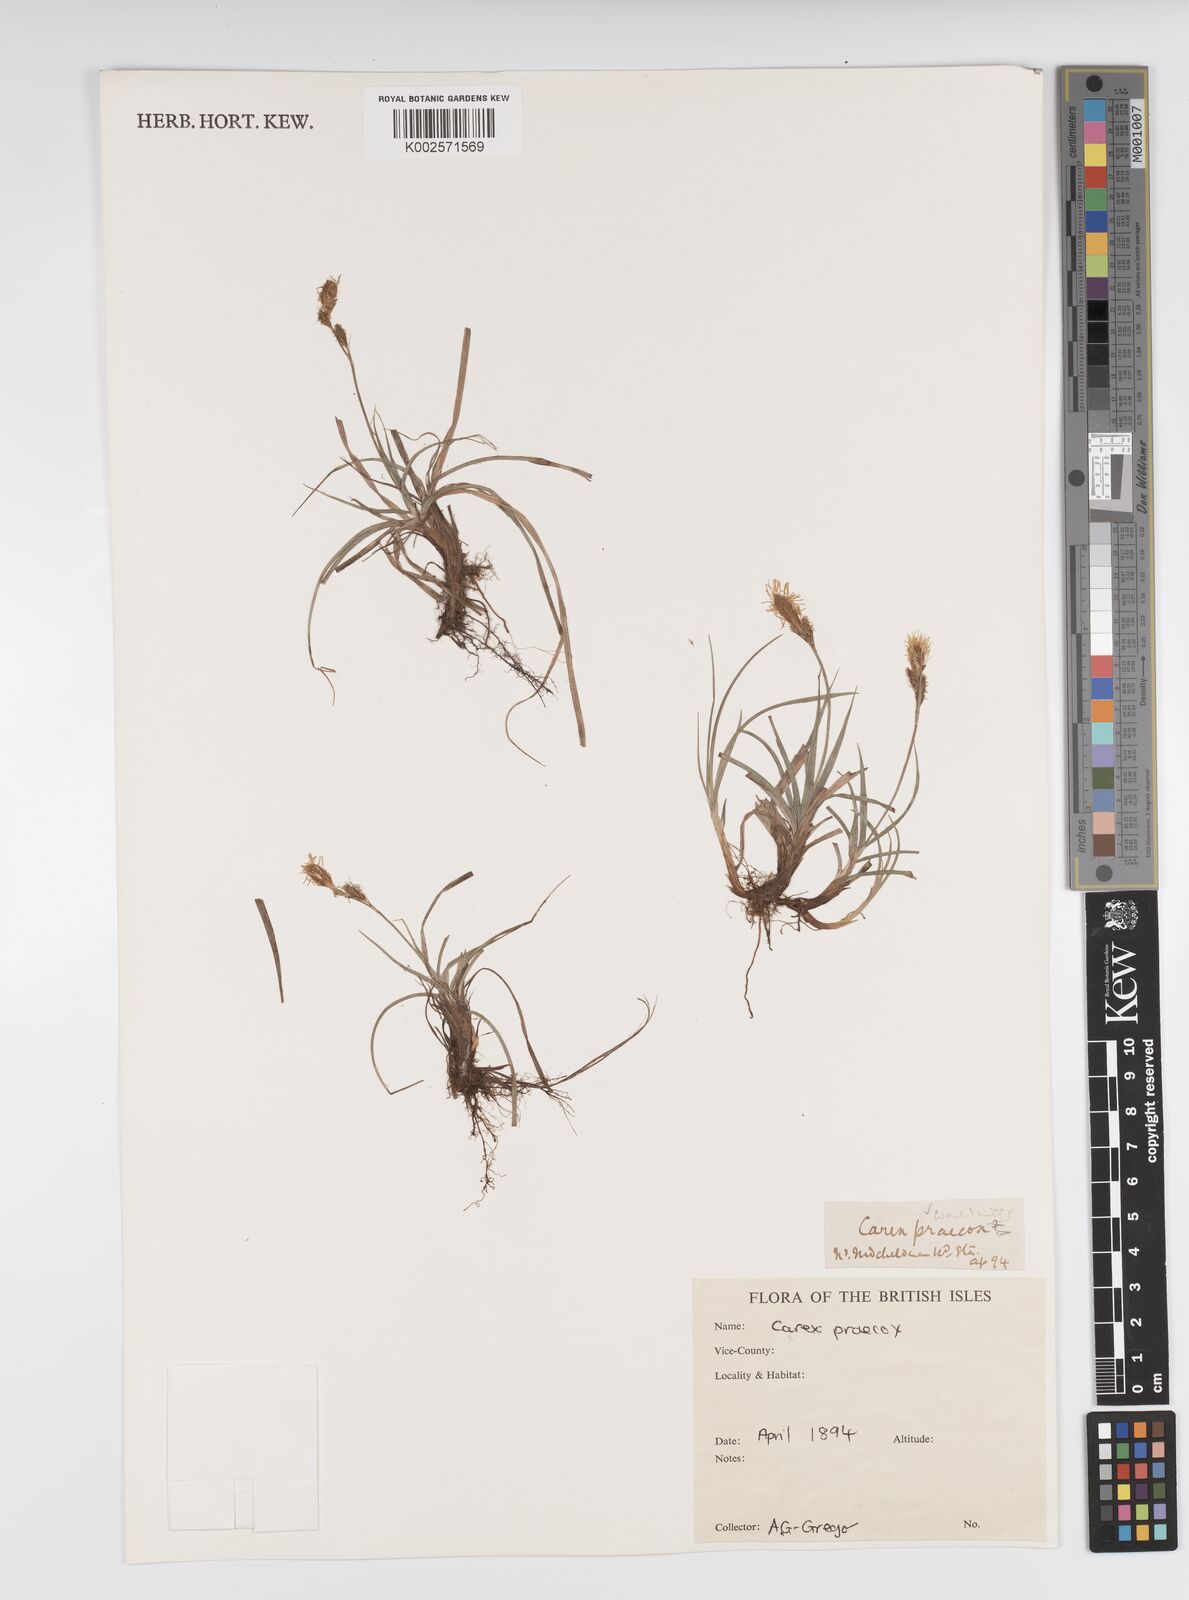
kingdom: Plantae
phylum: Tracheophyta
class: Liliopsida
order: Poales
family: Cyperaceae
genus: Carex
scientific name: Carex caryophyllea
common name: Spring sedge
